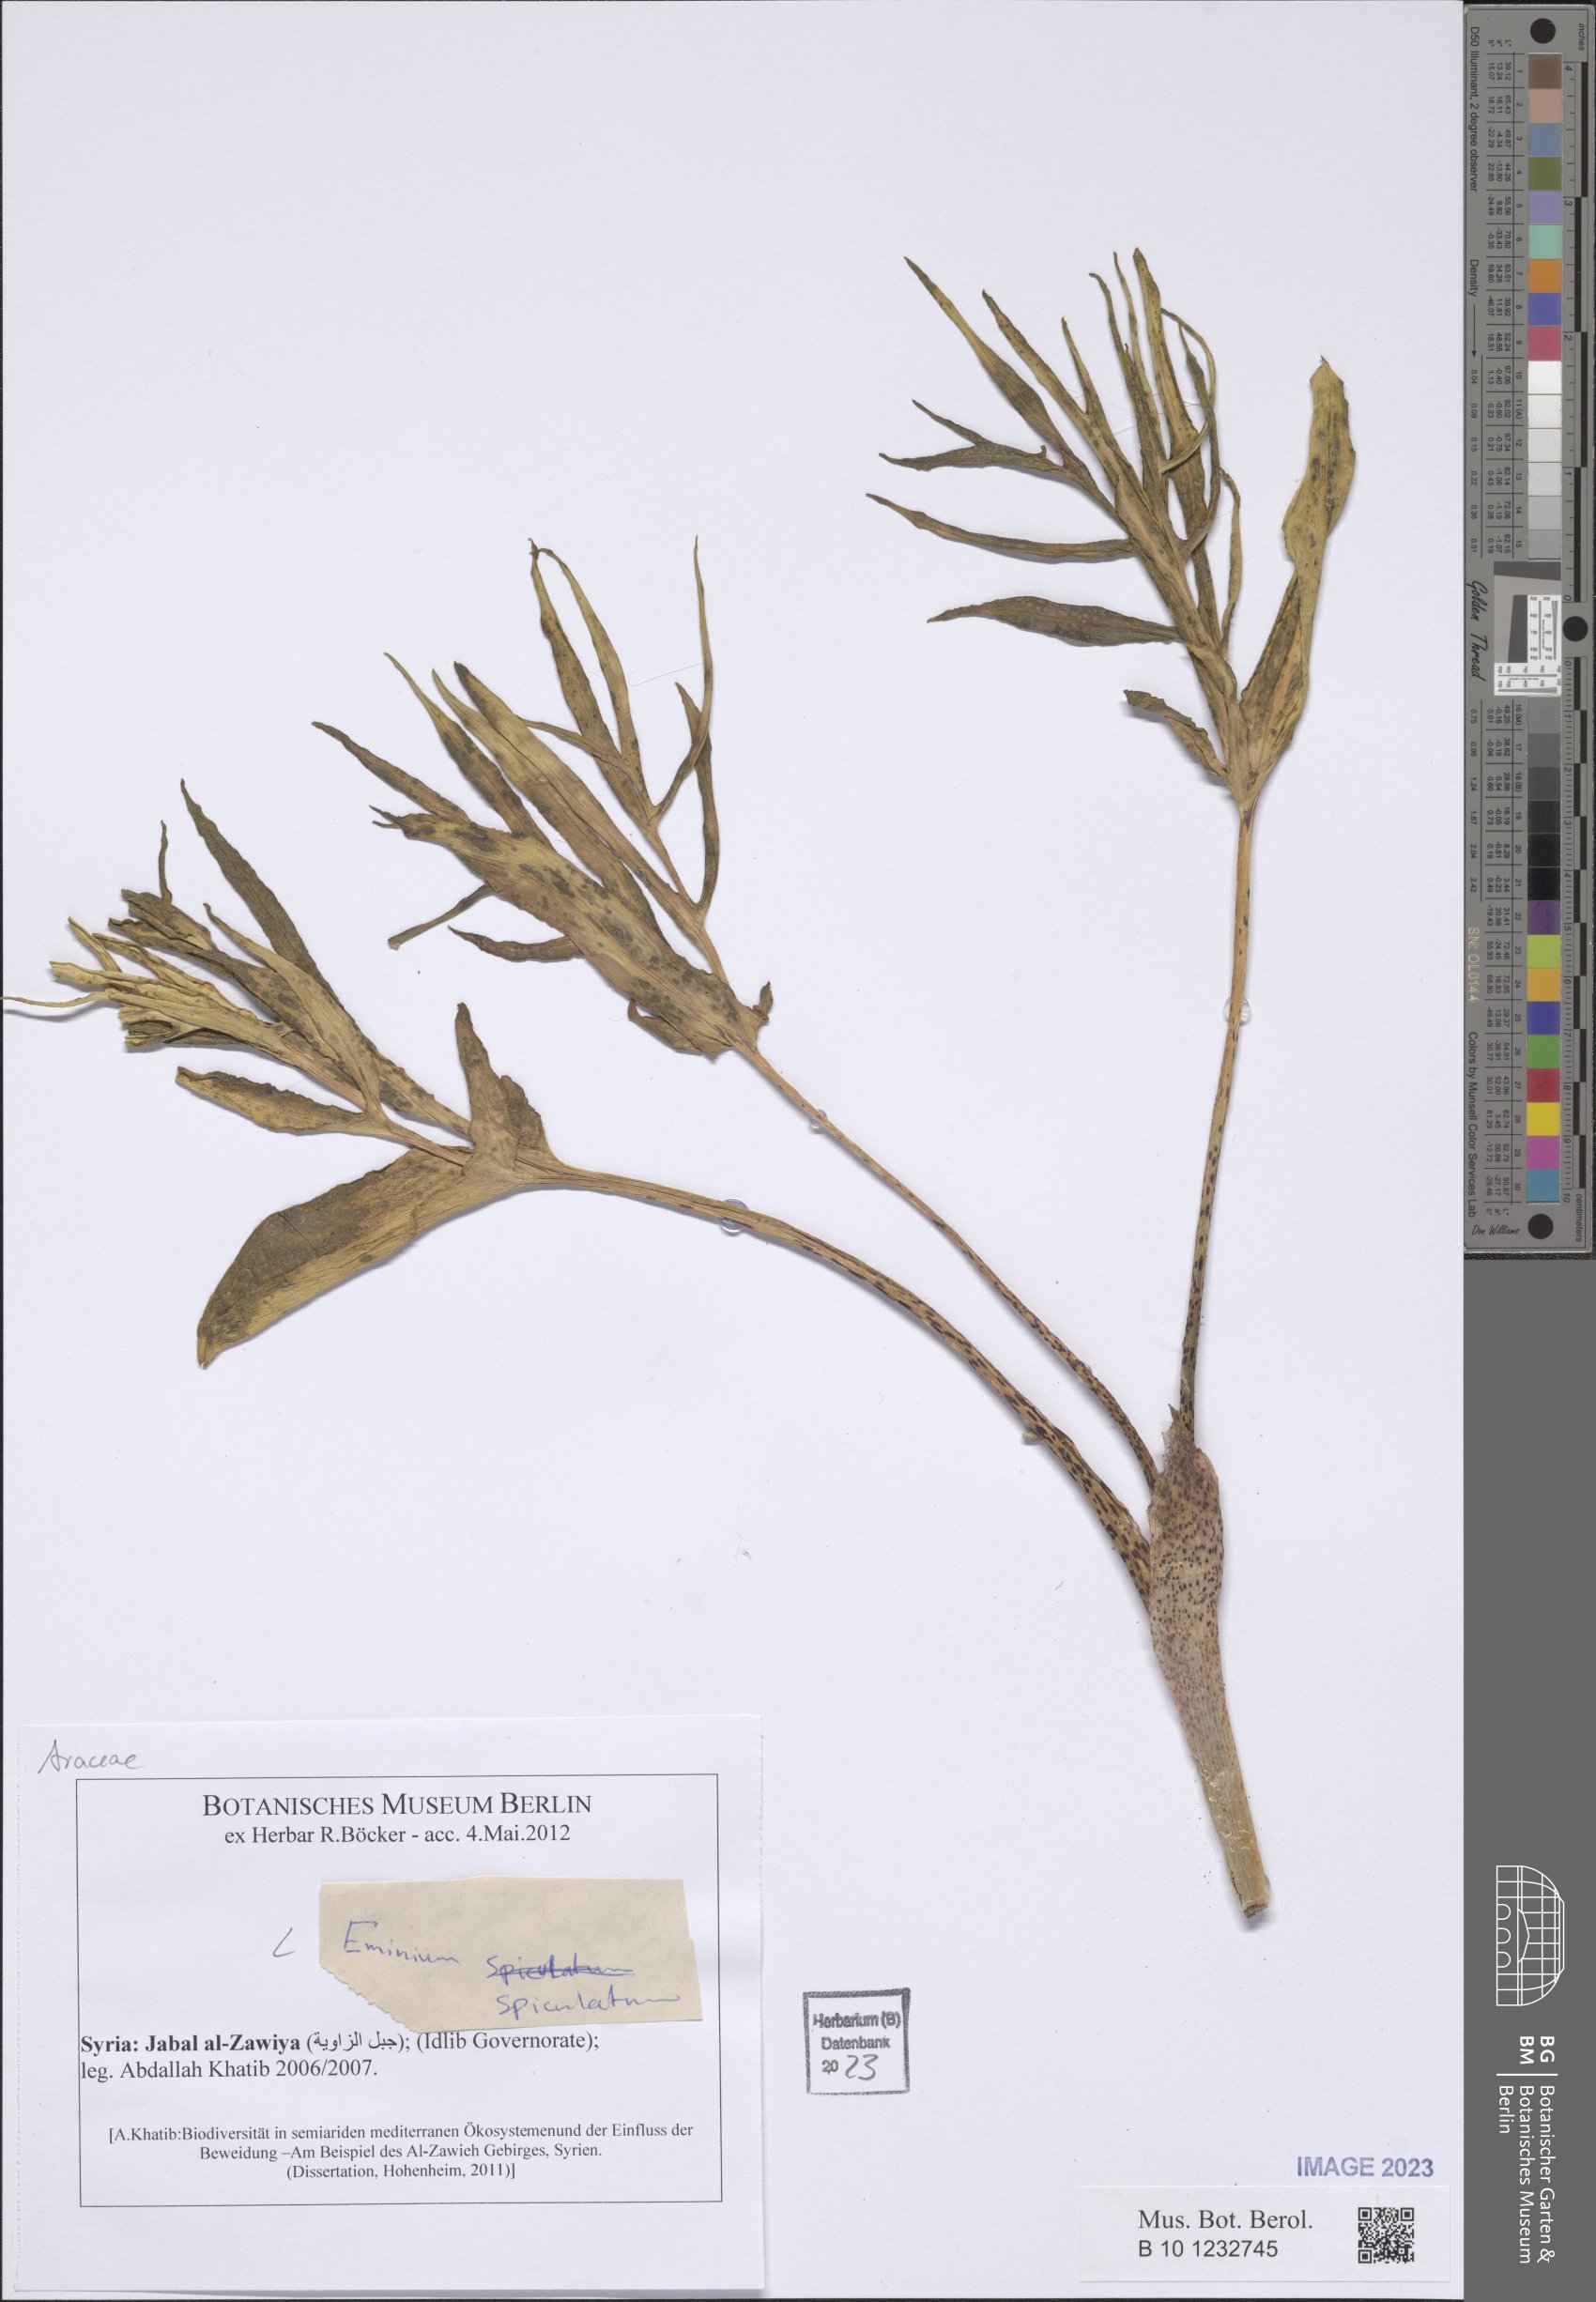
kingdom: Plantae
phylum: Tracheophyta
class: Liliopsida
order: Alismatales
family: Araceae
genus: Eminium
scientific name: Eminium spiculatum
